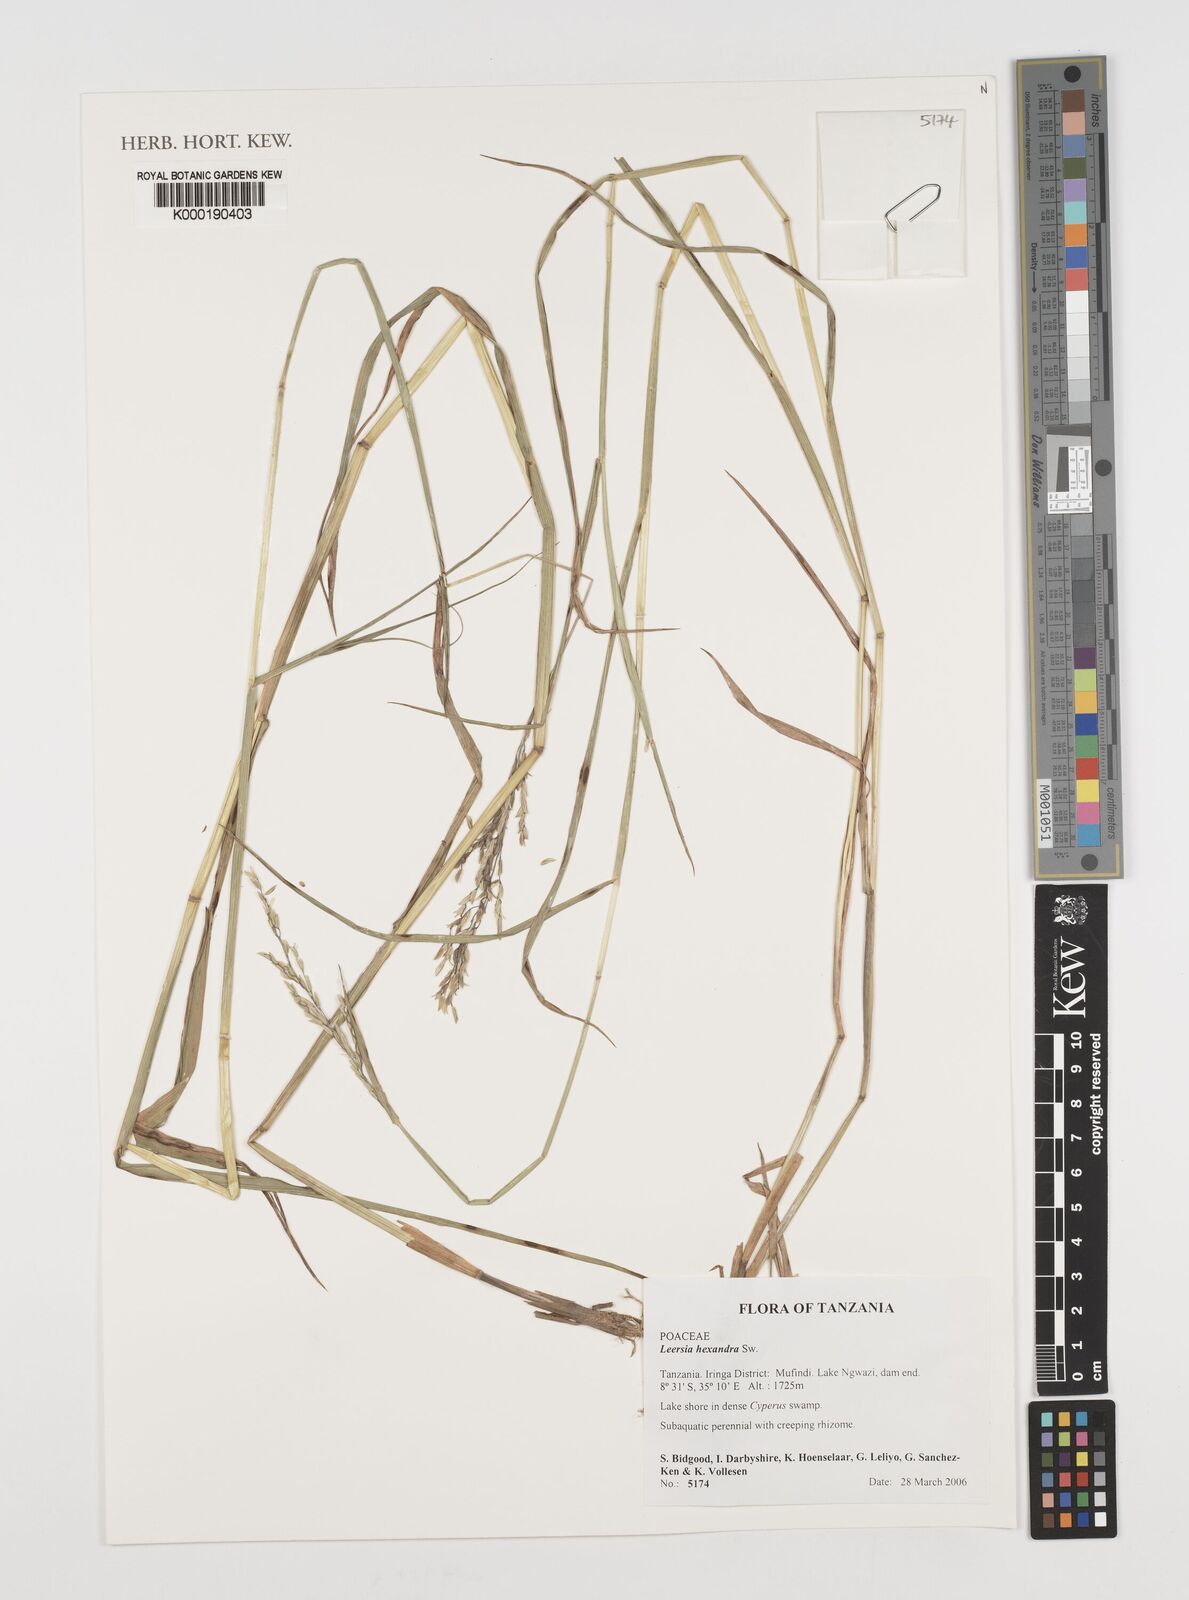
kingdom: Plantae
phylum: Tracheophyta
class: Liliopsida
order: Poales
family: Poaceae
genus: Leersia
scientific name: Leersia hexandra
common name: Southern cut grass
